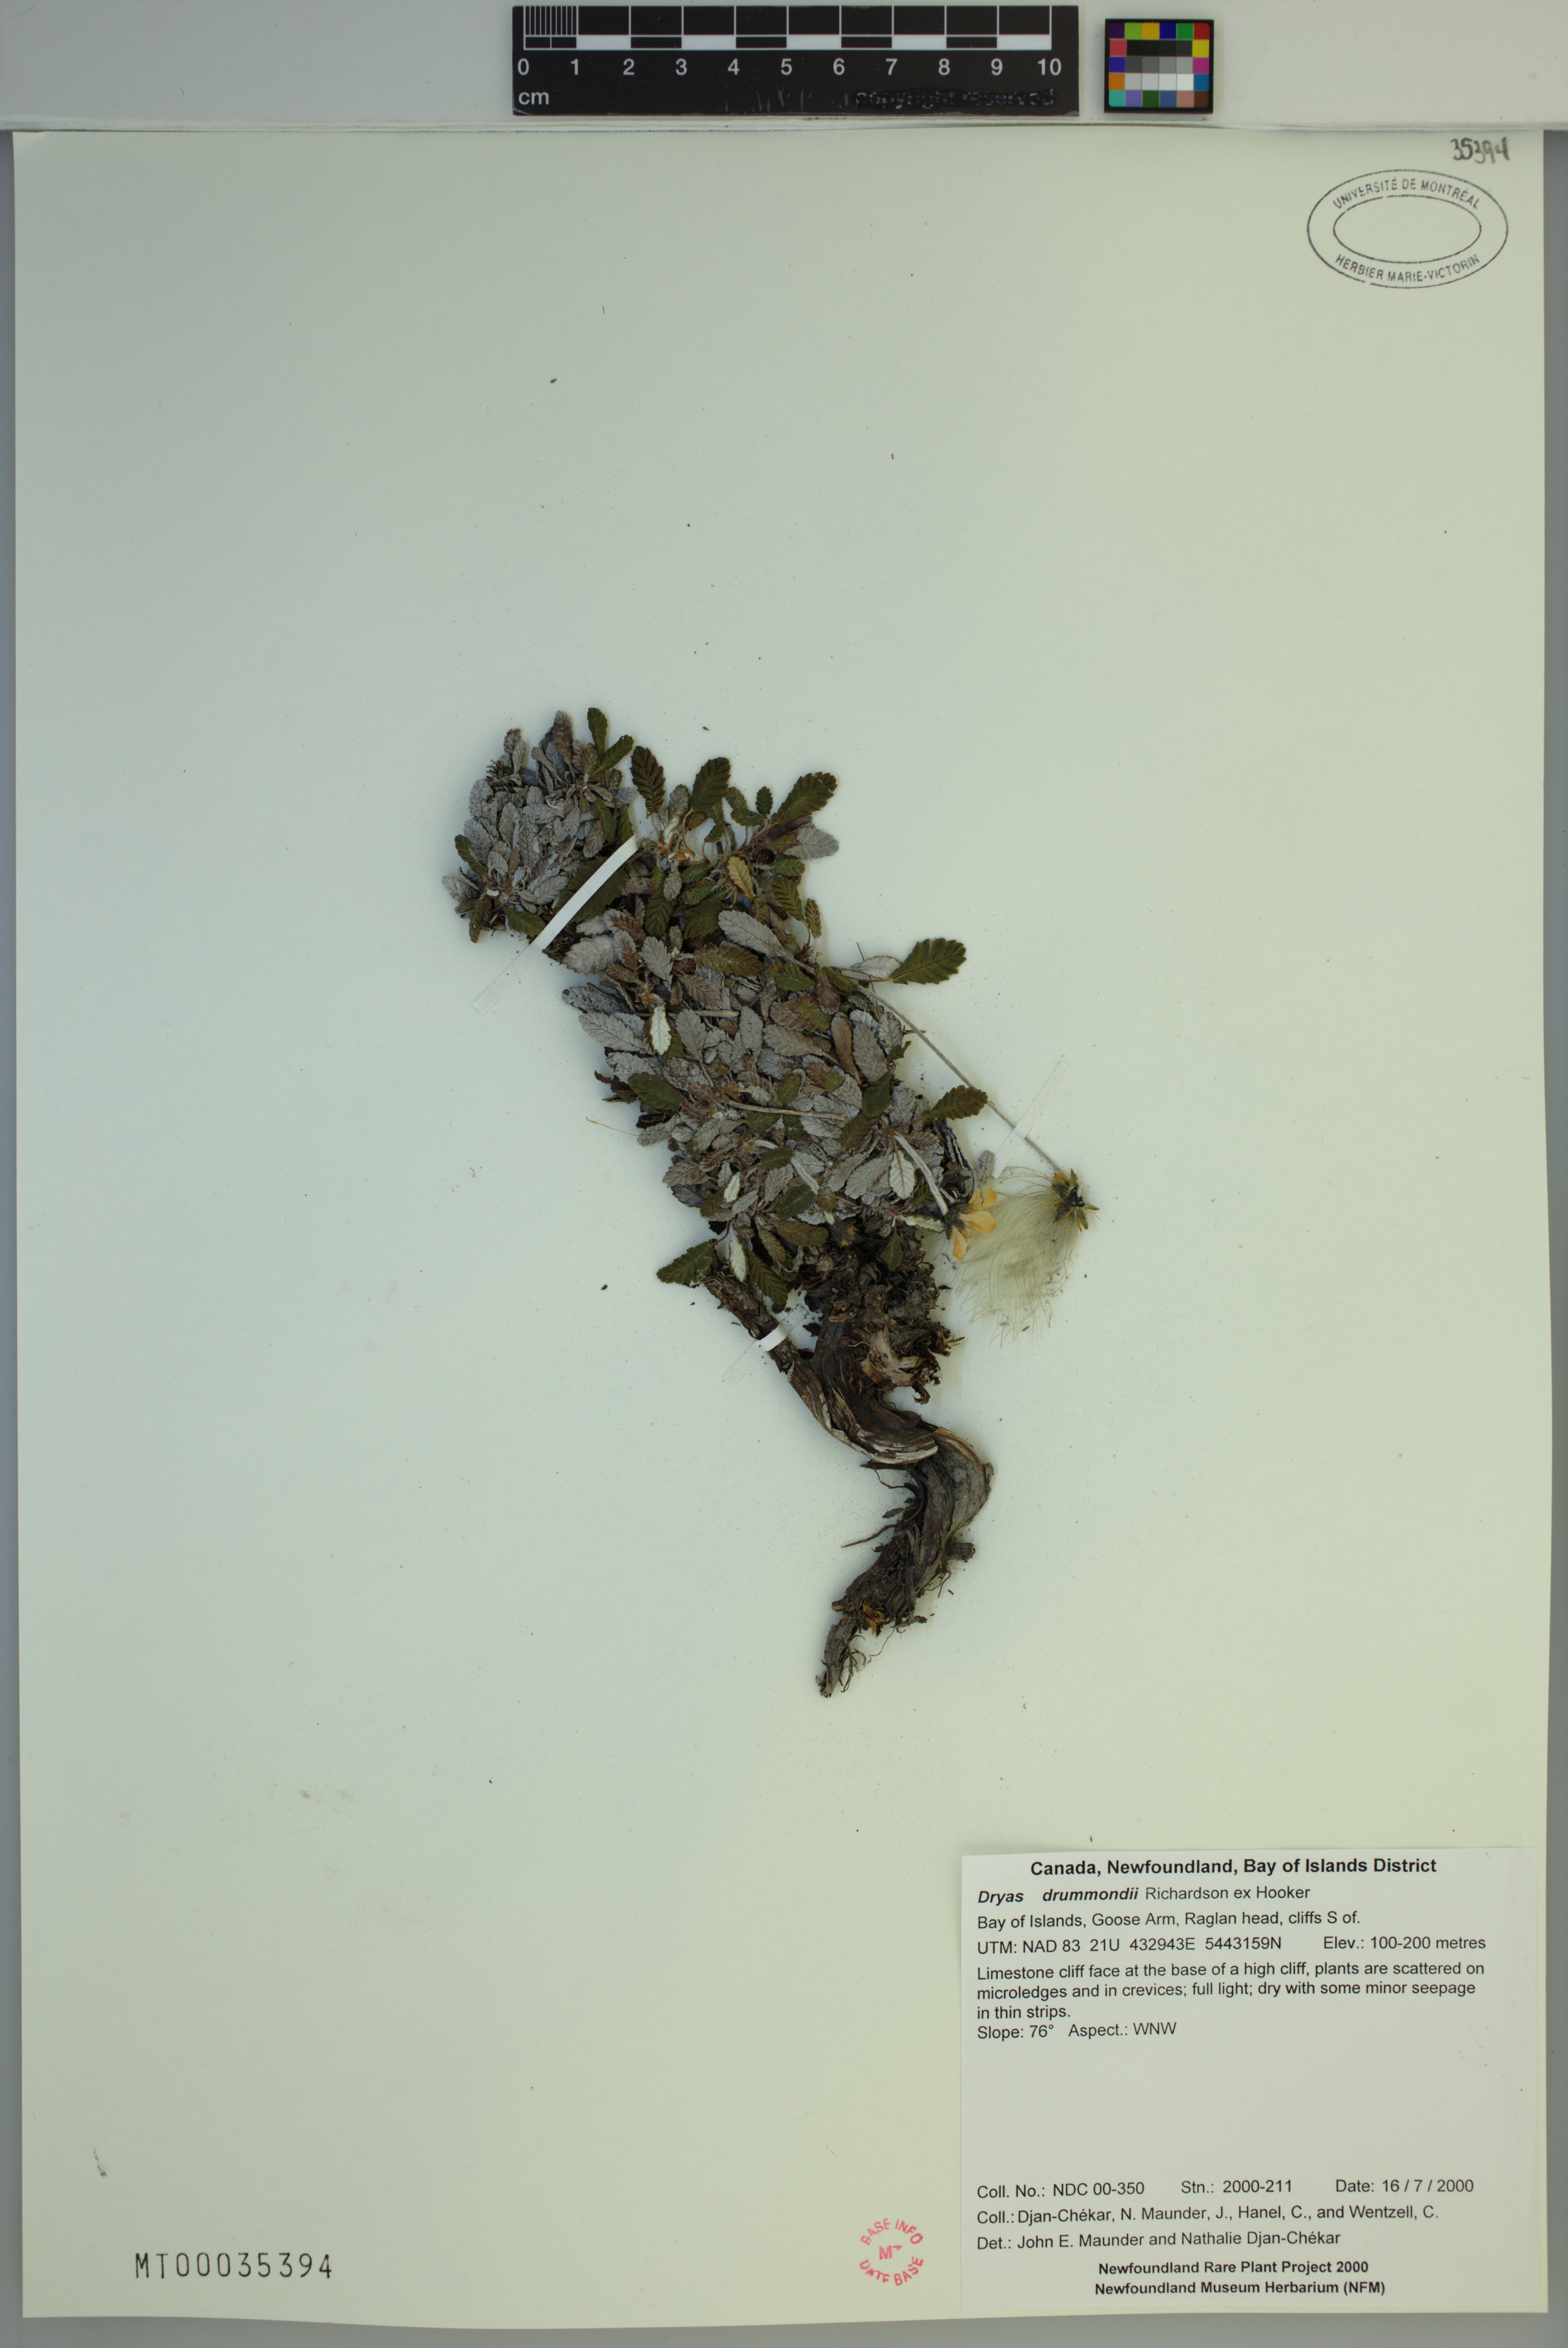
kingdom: Plantae
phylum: Tracheophyta
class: Magnoliopsida
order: Rosales
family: Rosaceae
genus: Dryas
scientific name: Dryas drummondii
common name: Drummond's dryad
